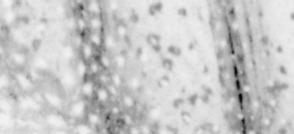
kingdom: Animalia
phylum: Chordata
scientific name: Chordata
